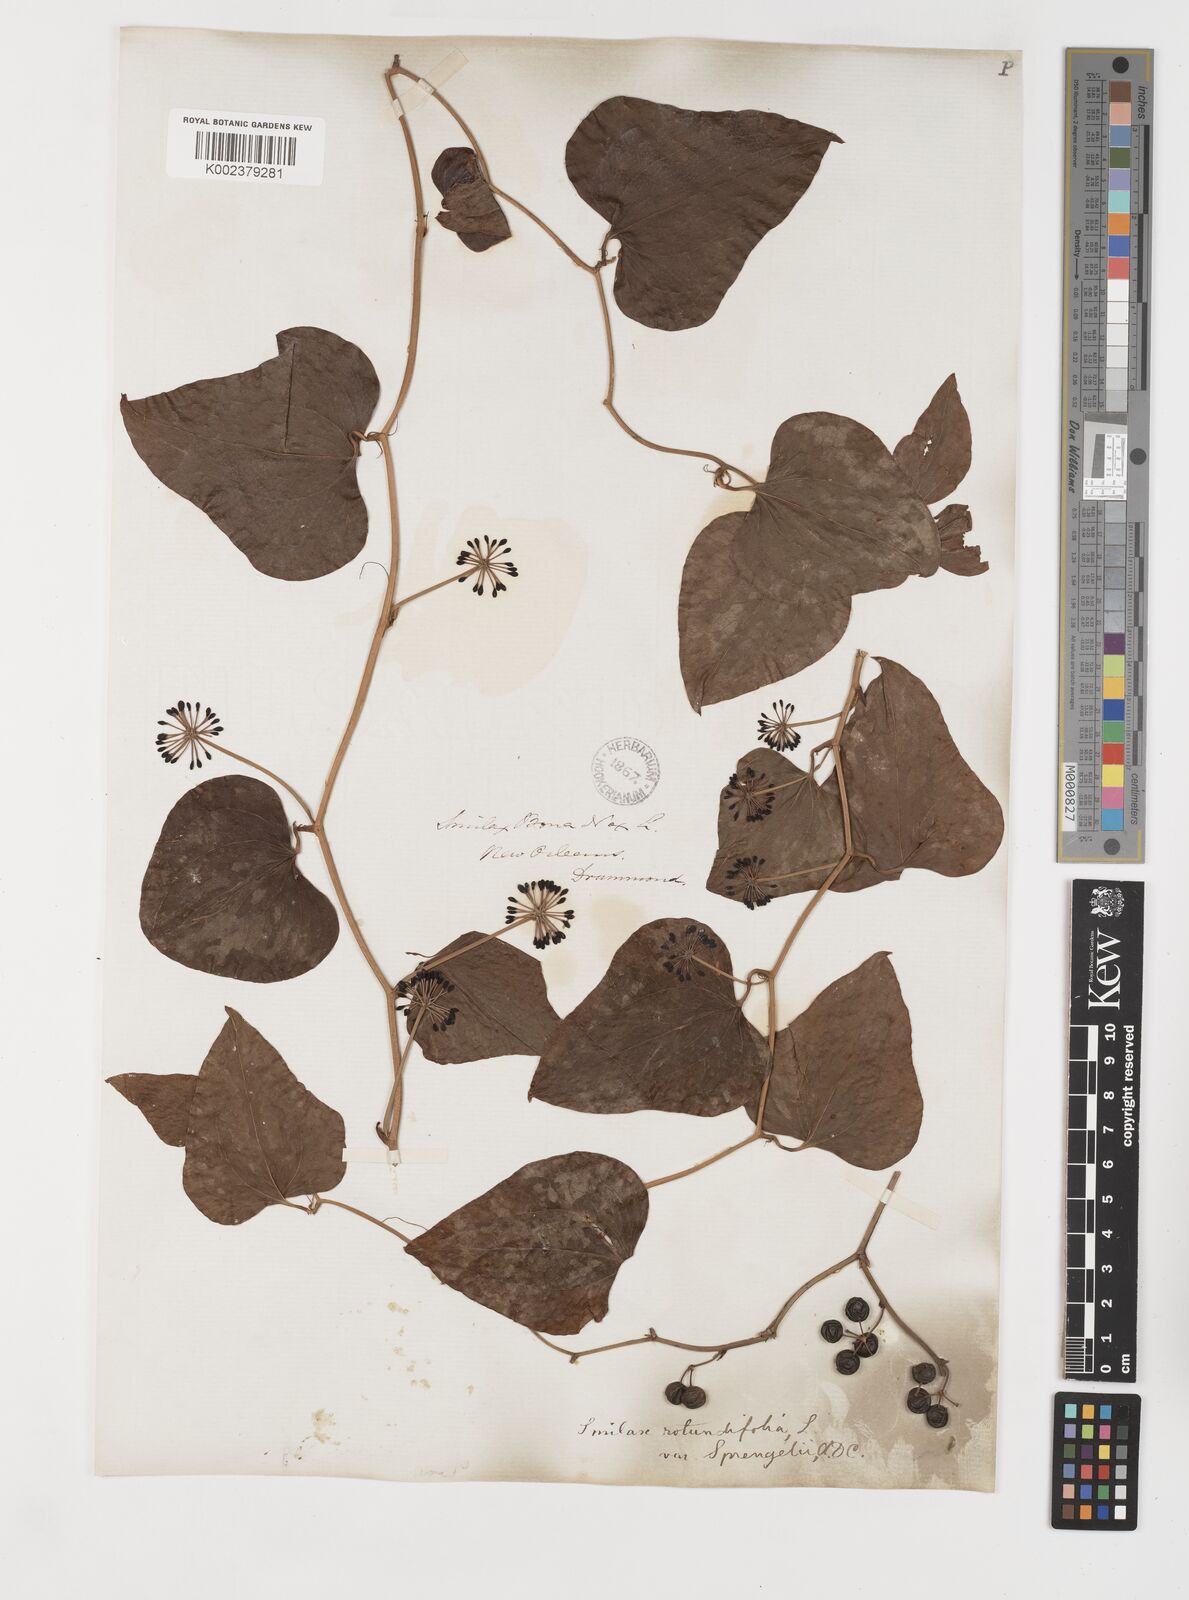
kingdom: Plantae
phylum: Tracheophyta
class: Liliopsida
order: Liliales
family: Smilacaceae
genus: Smilax
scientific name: Smilax rotundifolia
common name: Bullbriar
